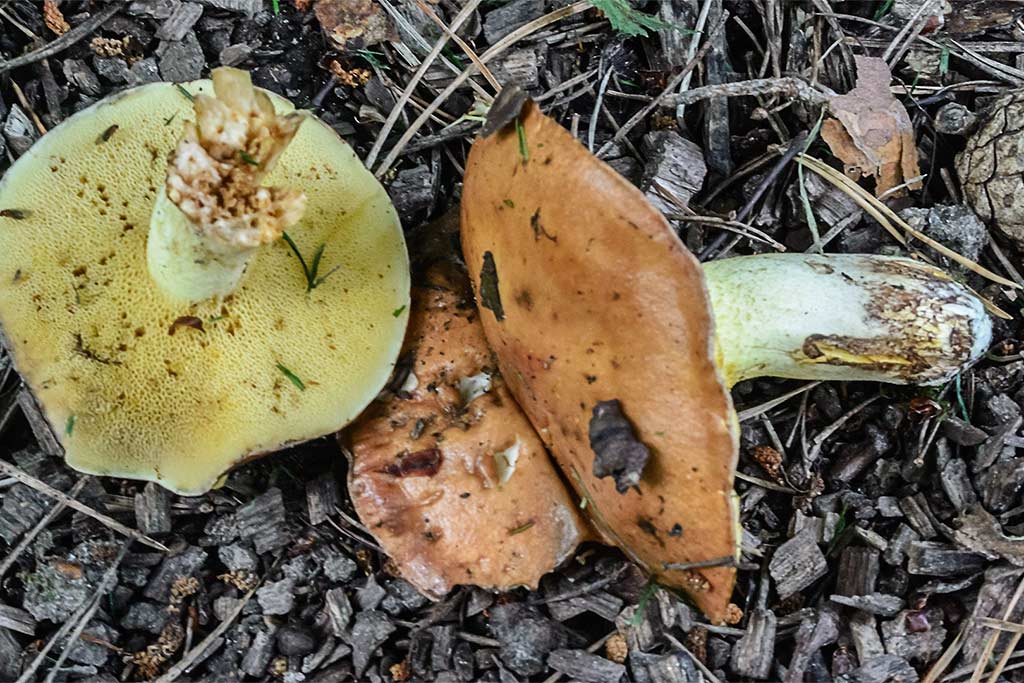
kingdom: Fungi
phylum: Basidiomycota
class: Agaricomycetes
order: Boletales
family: Suillaceae
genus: Suillus
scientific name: Suillus granulatus
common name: kornet slimrørhat
